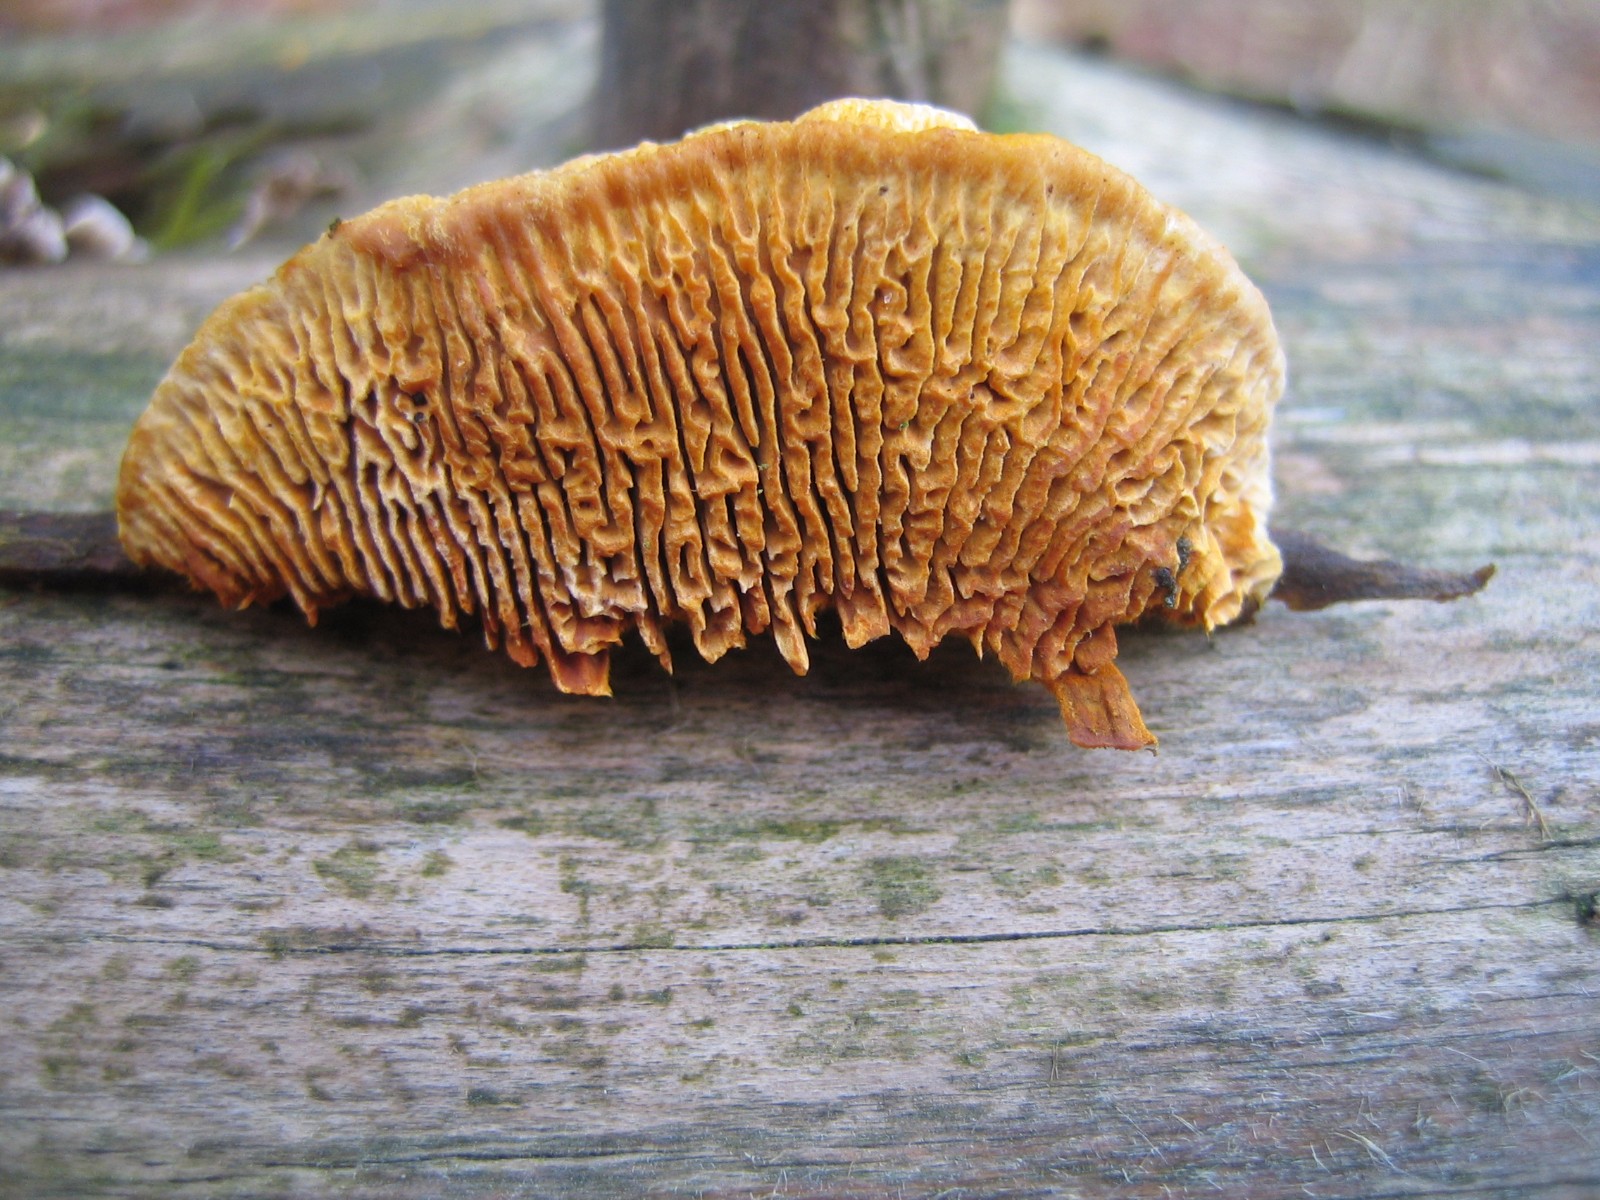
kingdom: Fungi
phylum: Basidiomycota
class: Agaricomycetes
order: Gloeophyllales
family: Gloeophyllaceae
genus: Gloeophyllum
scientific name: Gloeophyllum sepiarium
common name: fyrre-korkhat
